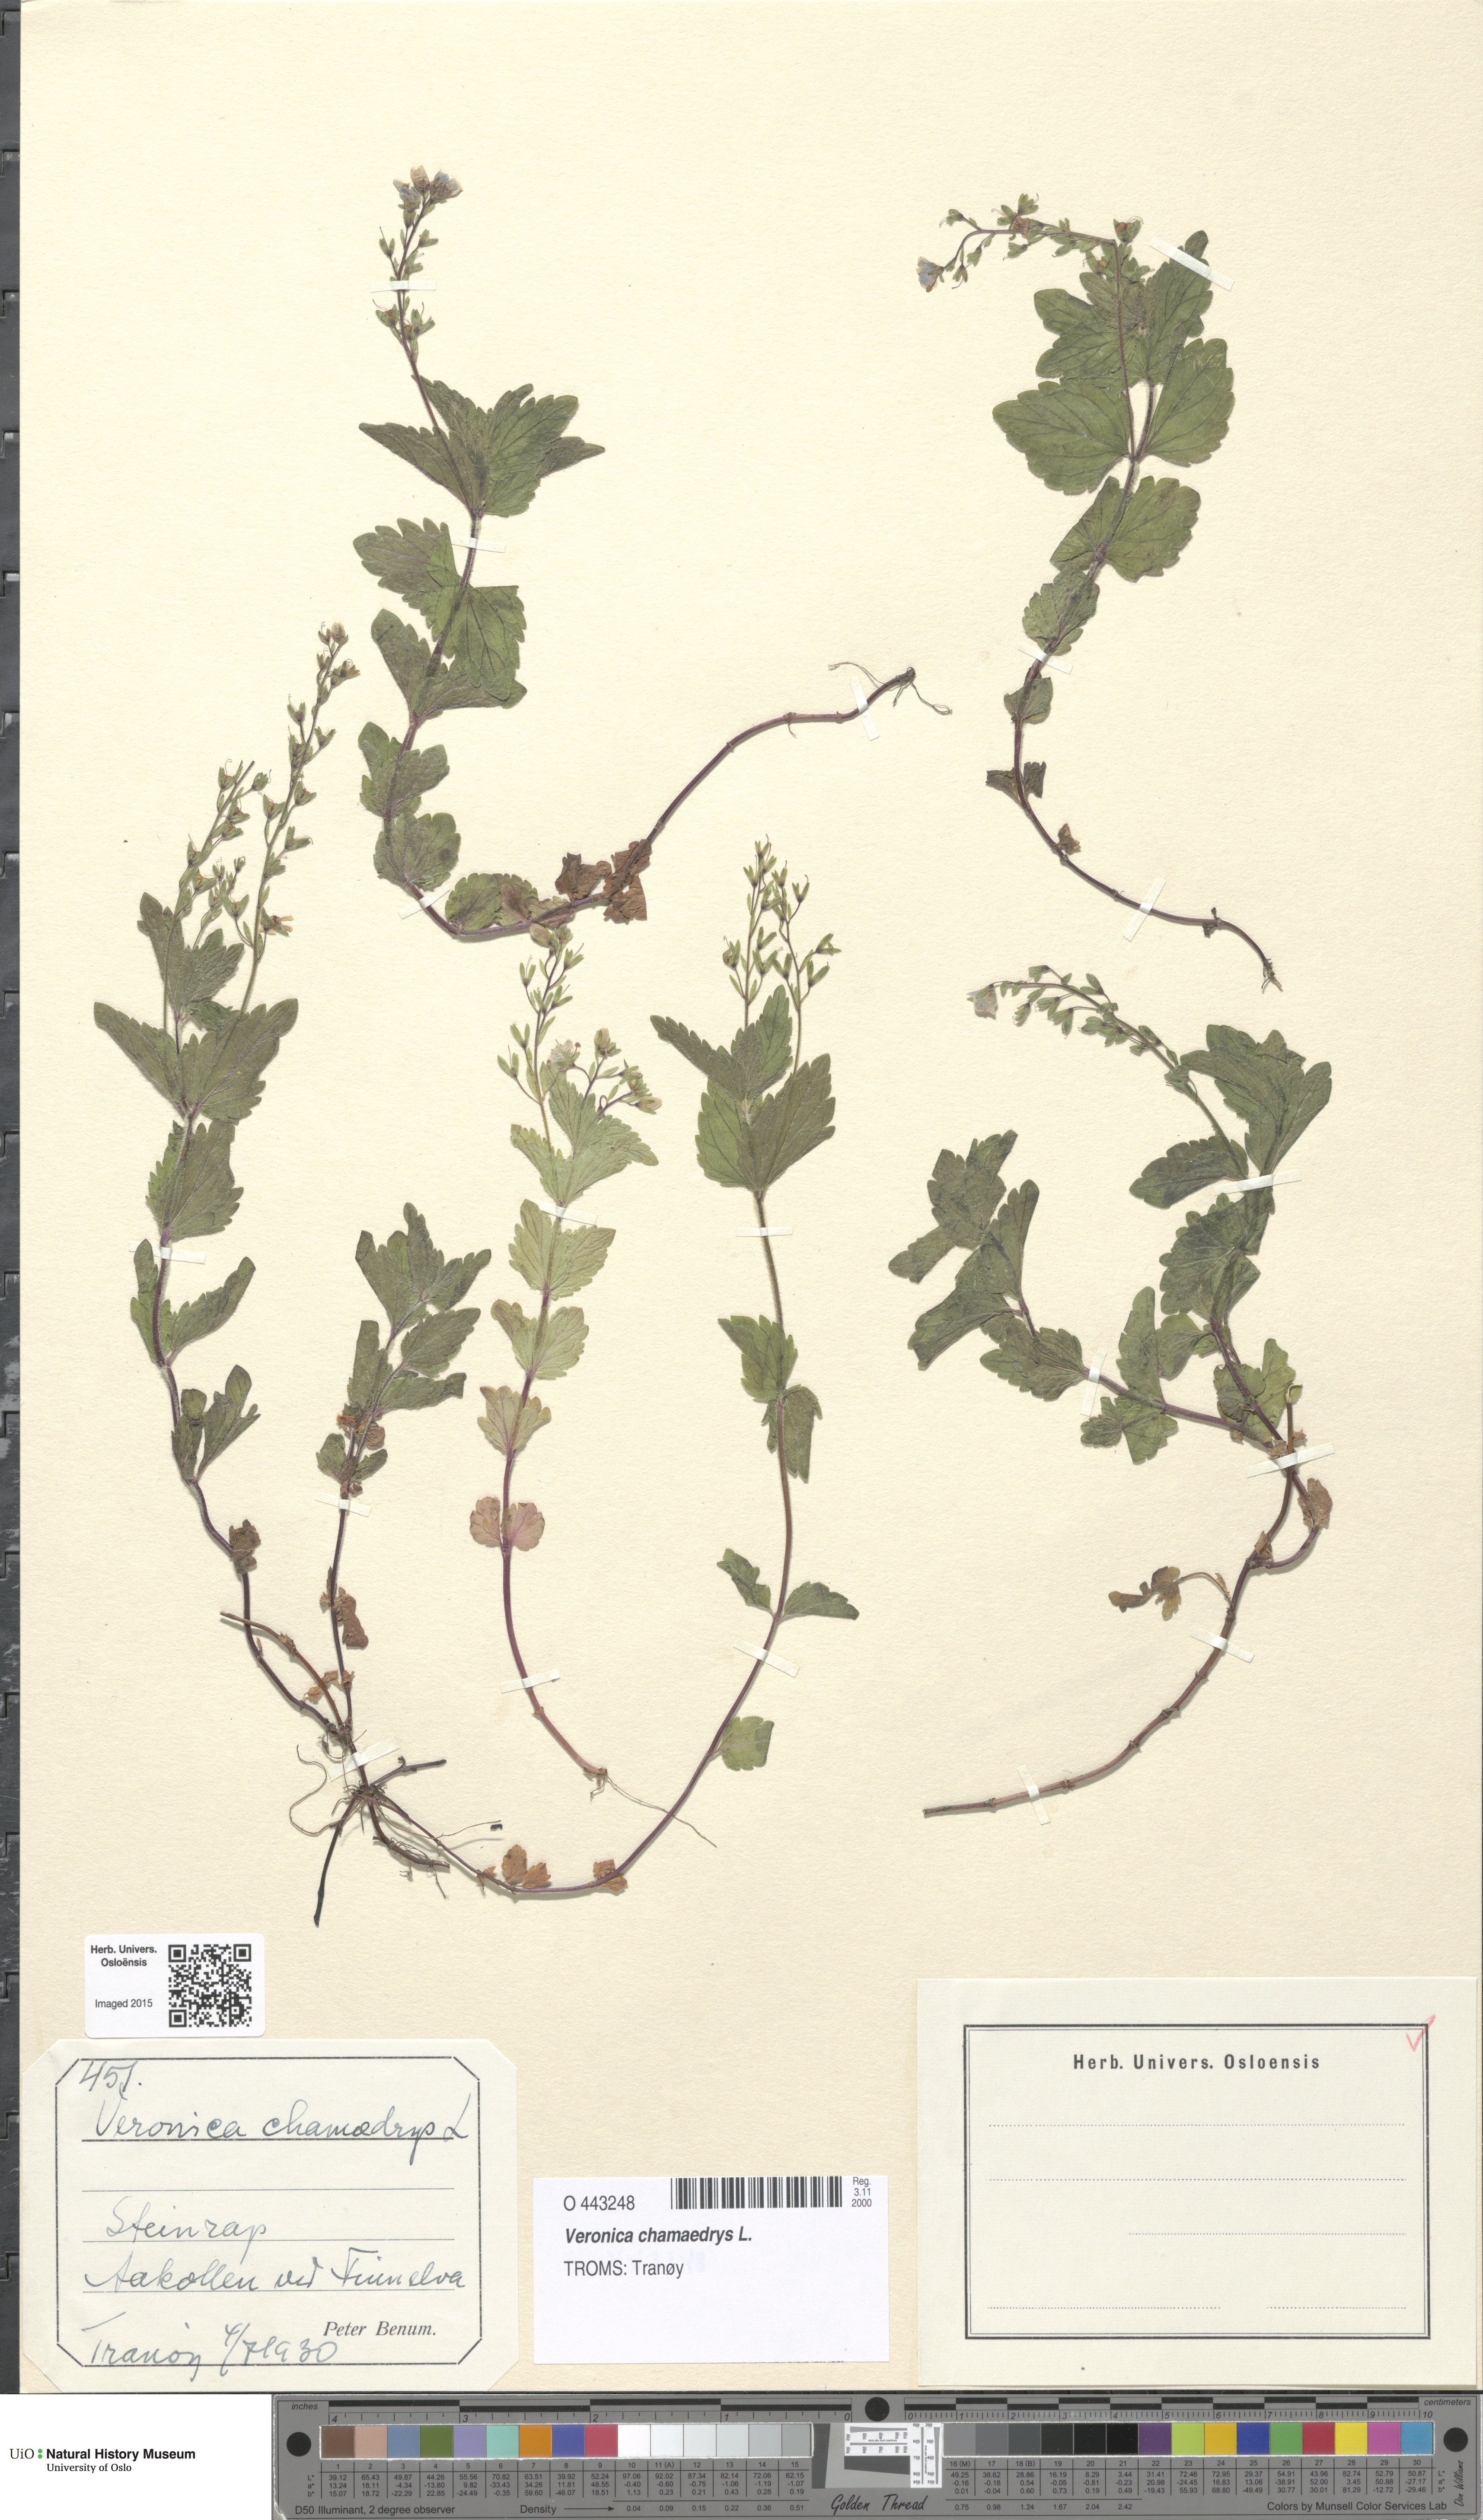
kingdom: Plantae
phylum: Tracheophyta
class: Magnoliopsida
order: Lamiales
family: Plantaginaceae
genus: Veronica
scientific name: Veronica chamaedrys
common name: Germander speedwell
